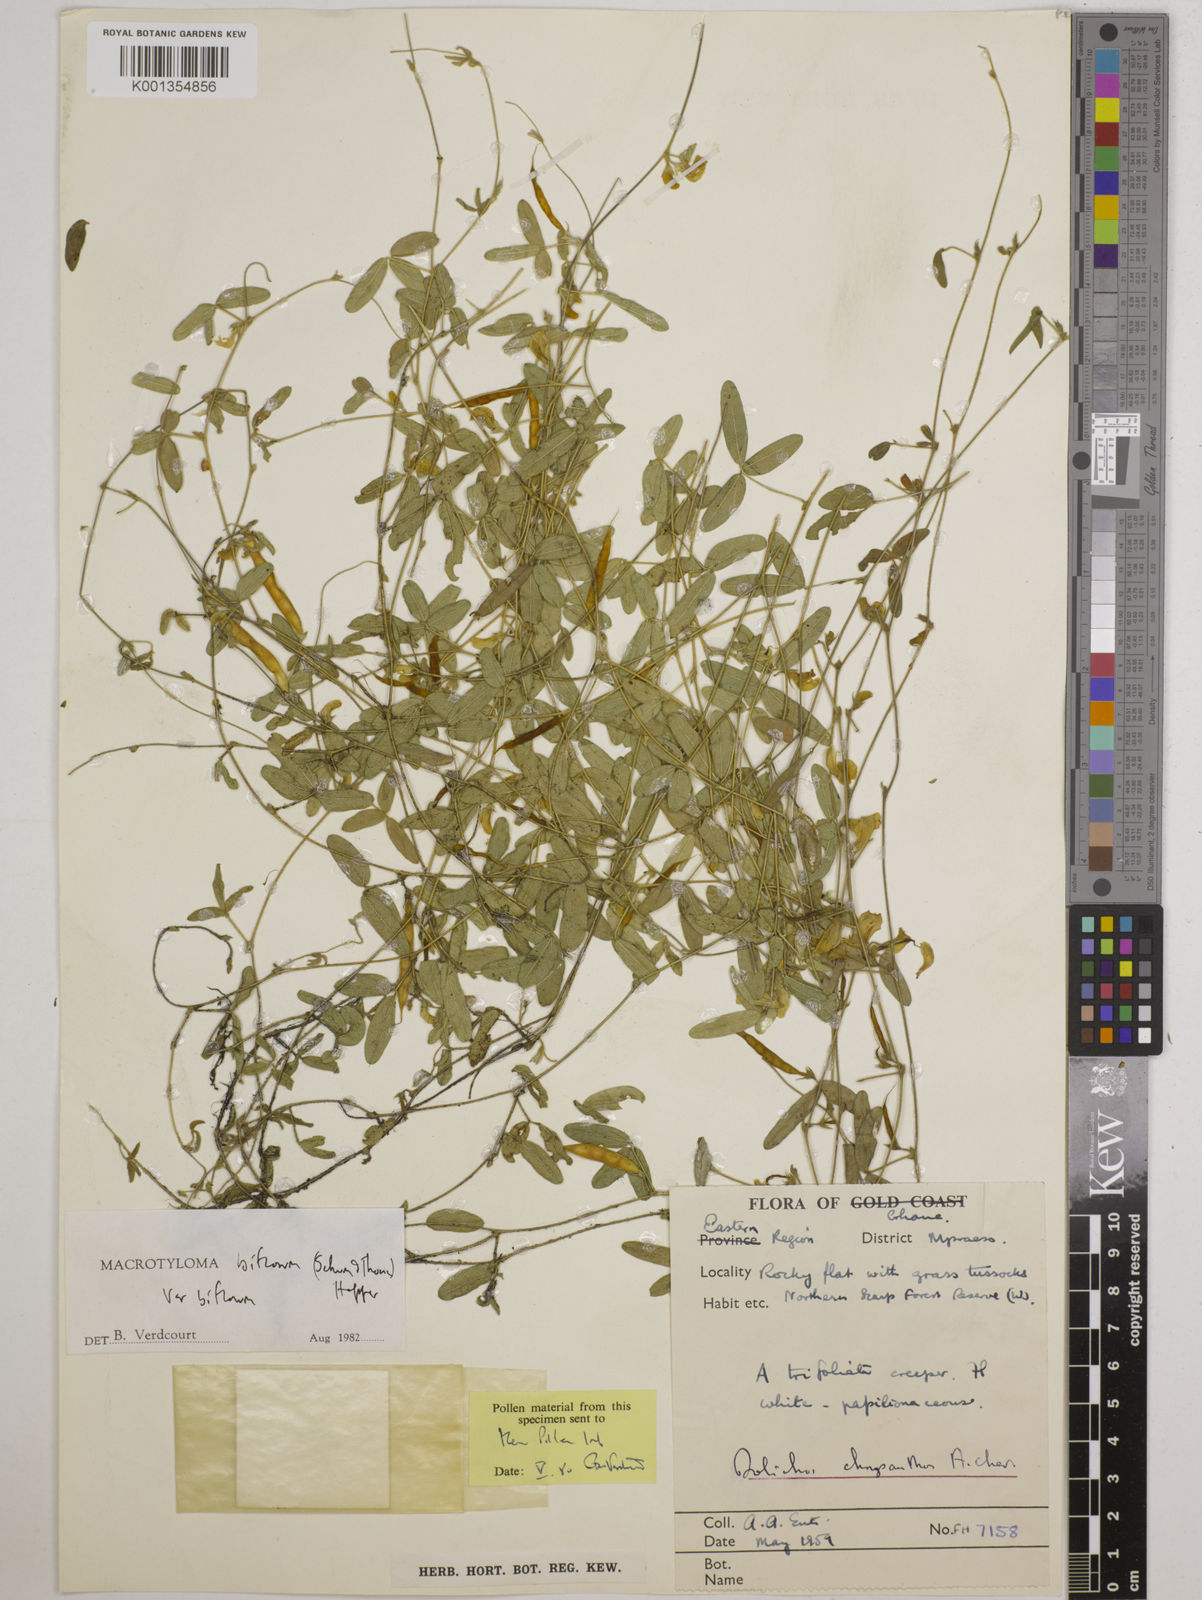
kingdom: Plantae
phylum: Tracheophyta
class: Magnoliopsida
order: Fabales
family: Fabaceae
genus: Macrotyloma
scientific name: Macrotyloma biflorum
